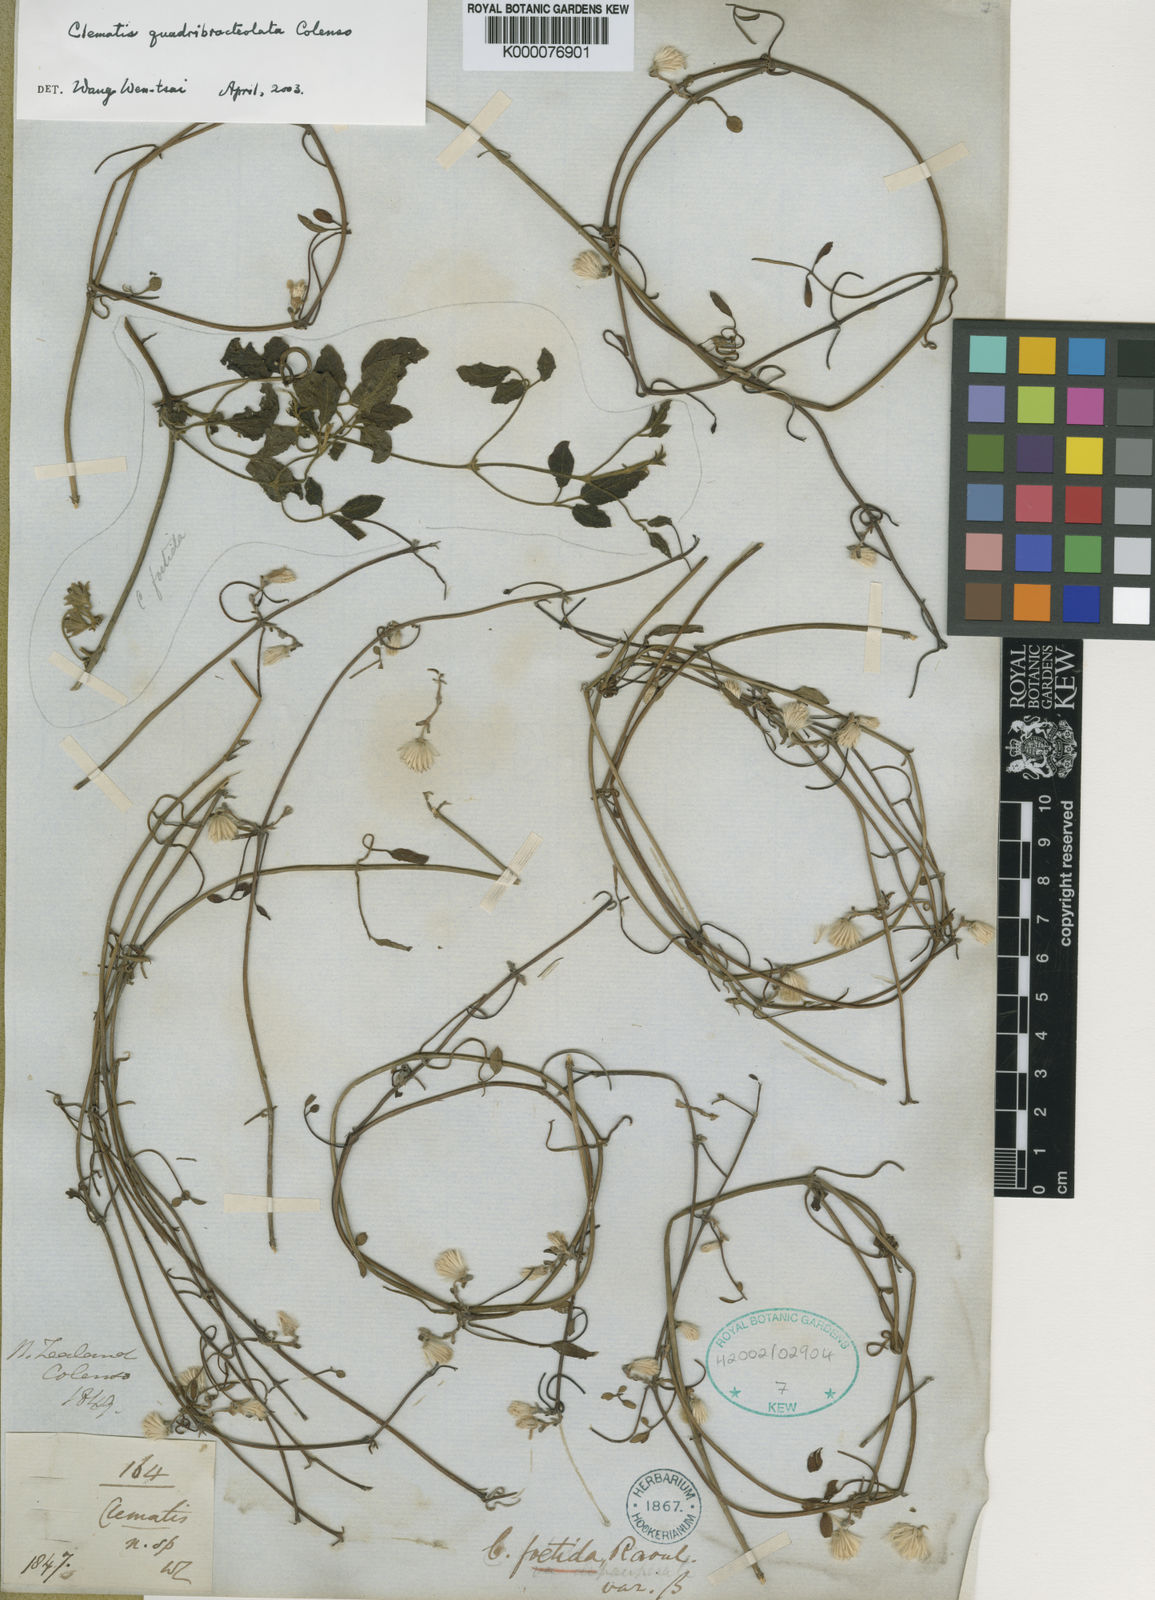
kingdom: Plantae
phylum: Tracheophyta
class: Magnoliopsida
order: Ranunculales
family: Ranunculaceae
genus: Clematis
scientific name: Clematis quadribracteolata
